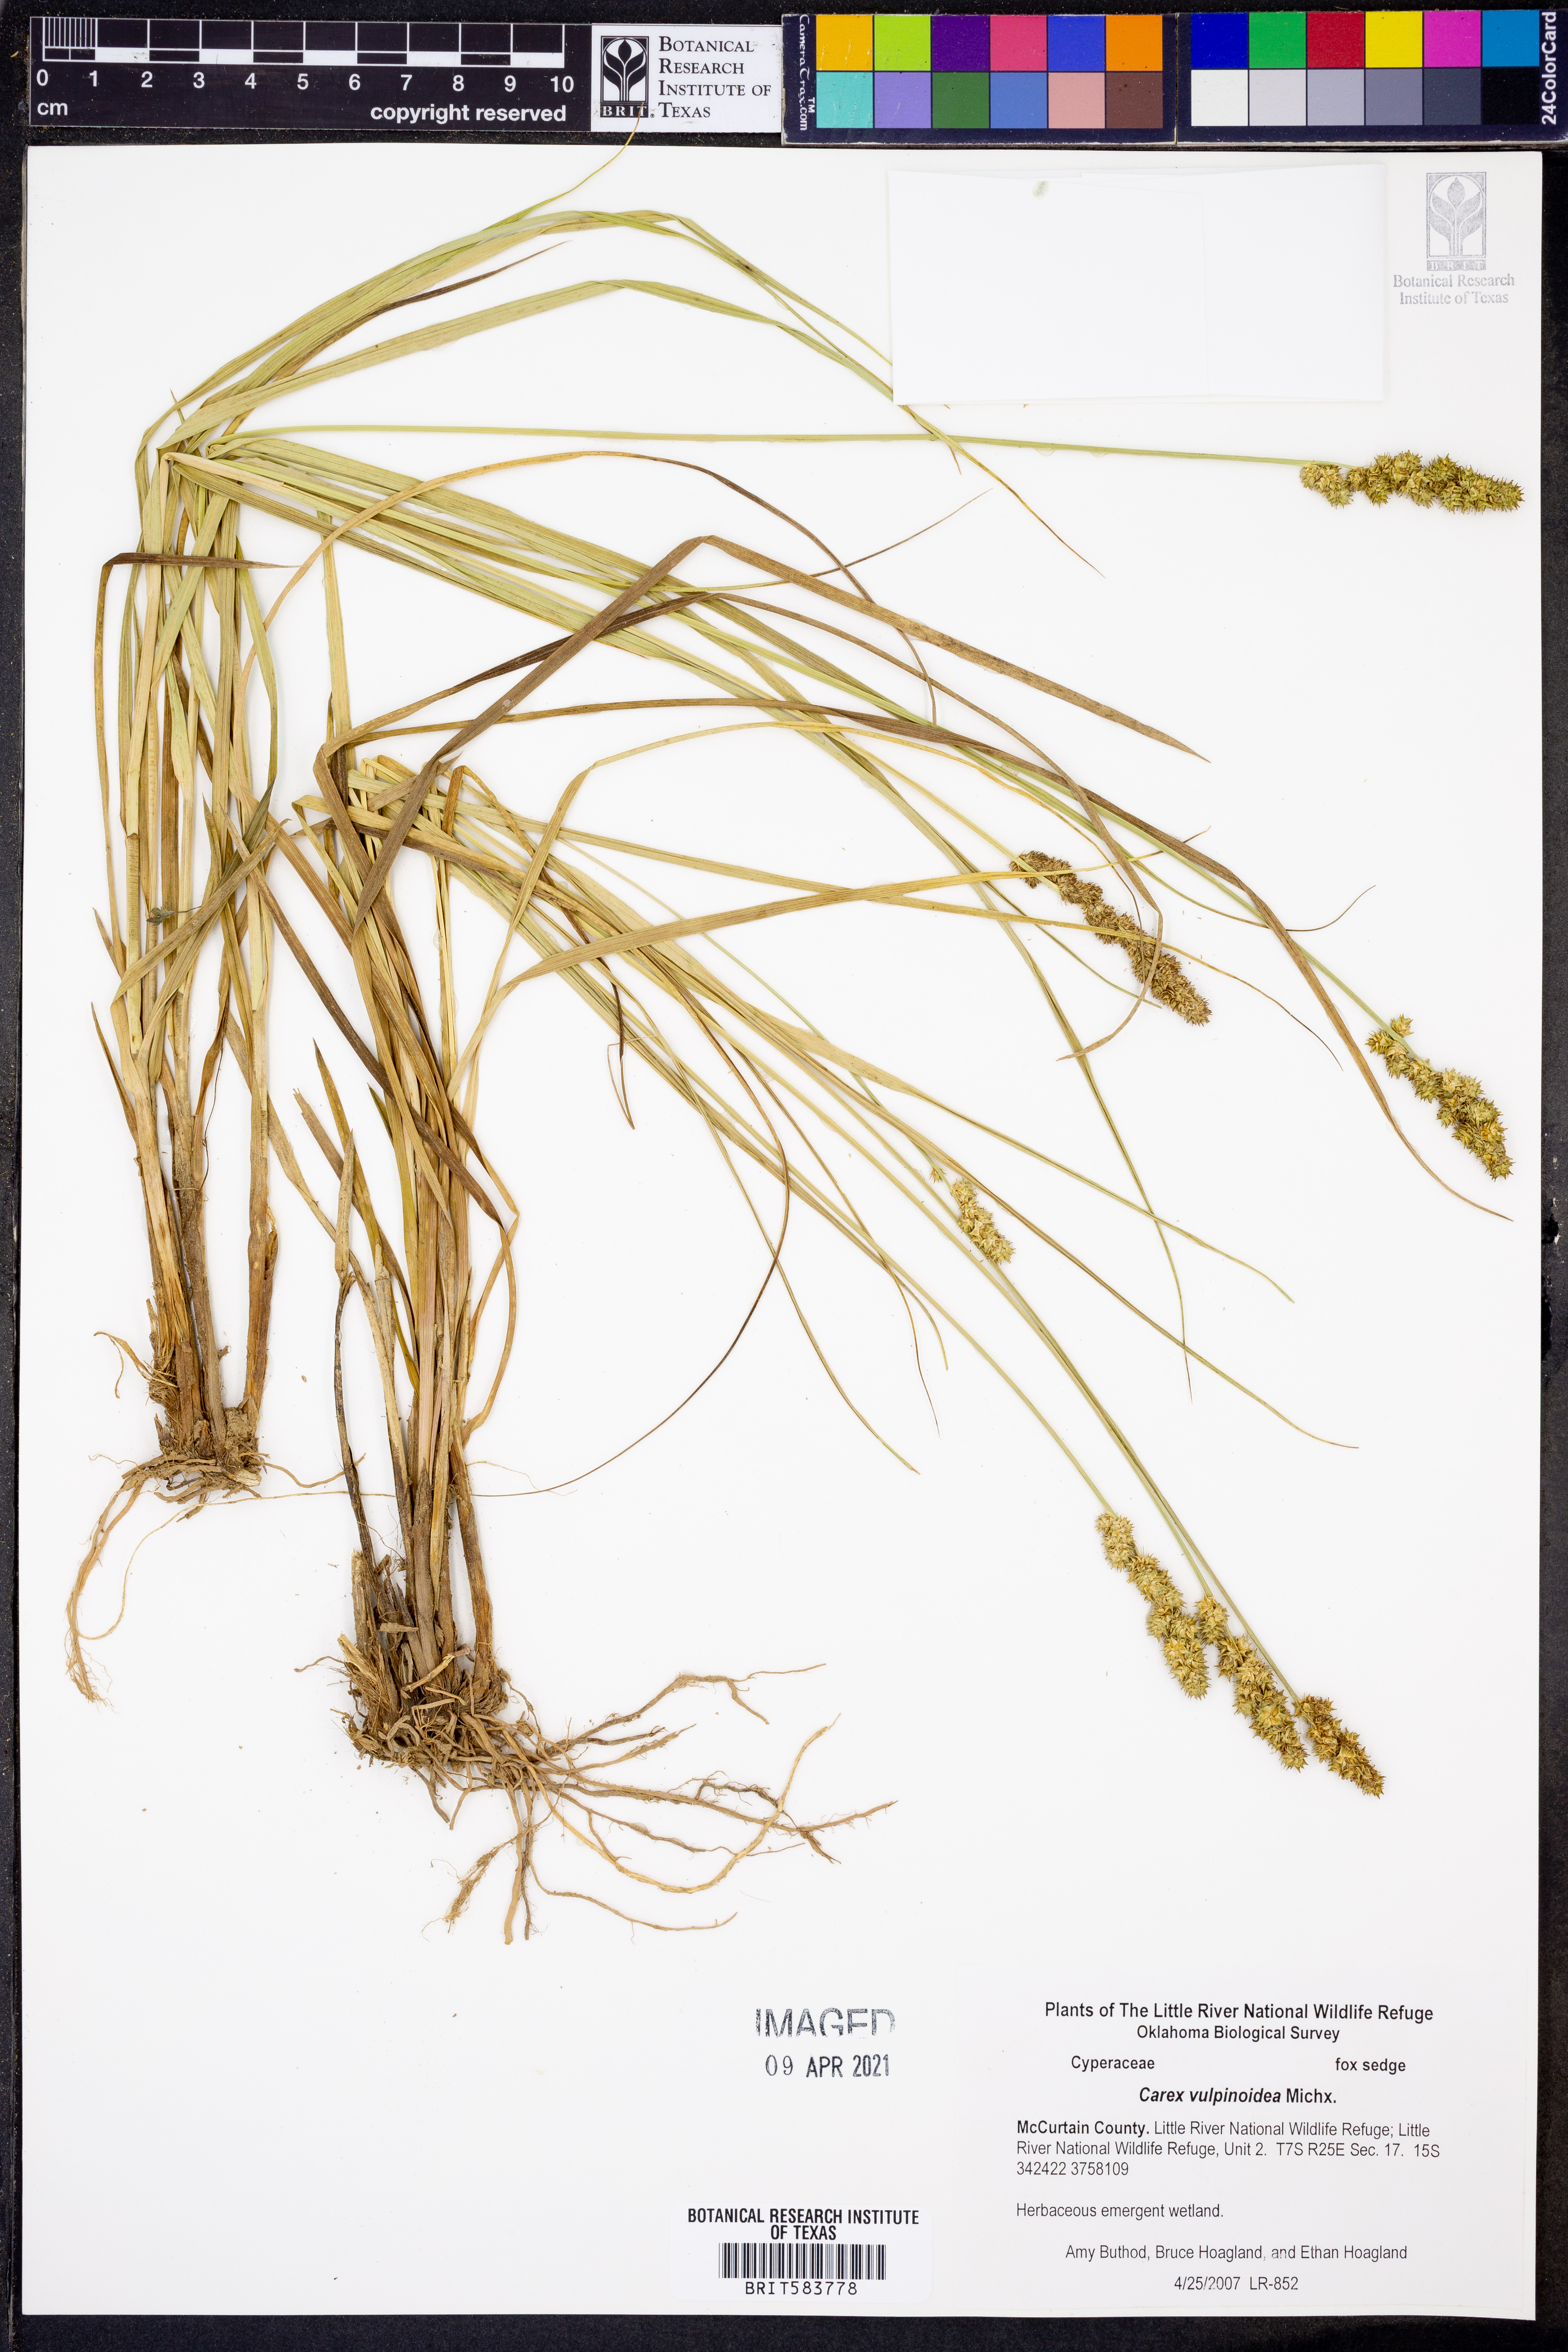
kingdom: Plantae
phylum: Tracheophyta
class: Liliopsida
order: Poales
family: Cyperaceae
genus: Carex
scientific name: Carex vulpinoidea
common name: American fox-sedge
